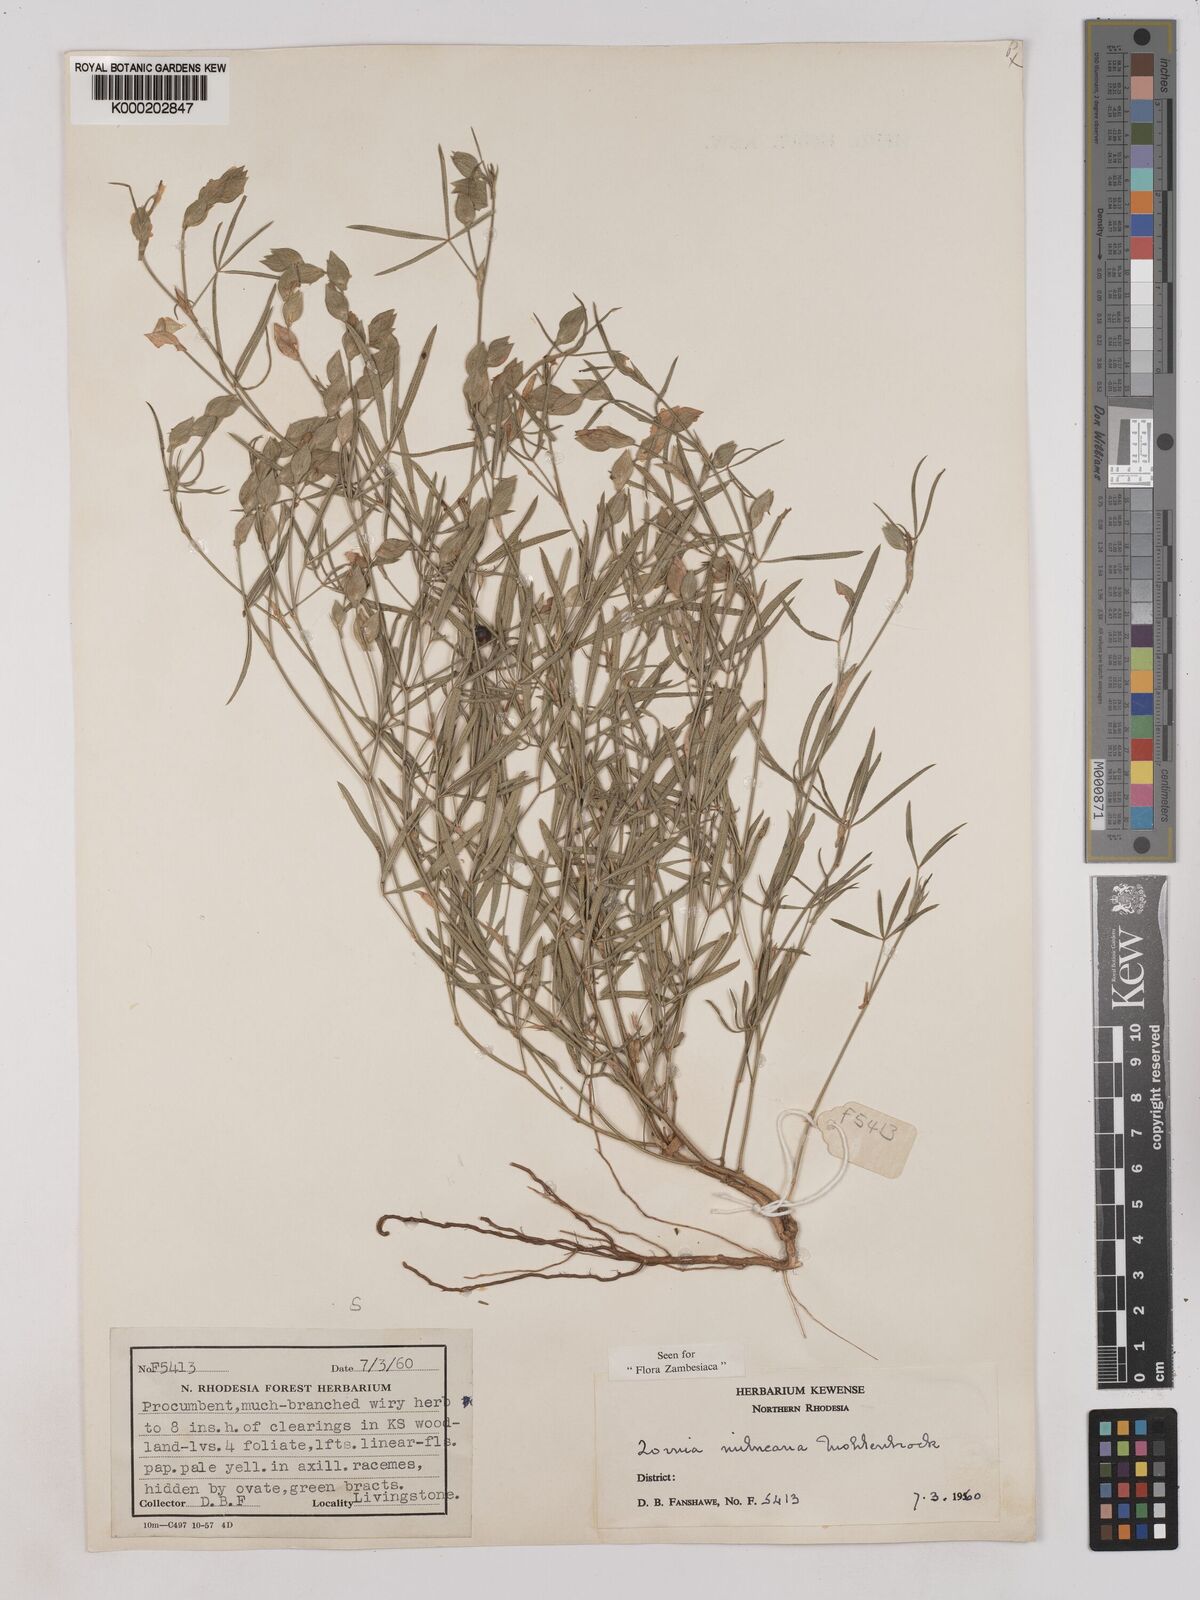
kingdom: Plantae
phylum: Tracheophyta
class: Magnoliopsida
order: Fabales
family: Fabaceae
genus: Zornia
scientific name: Zornia milneana
